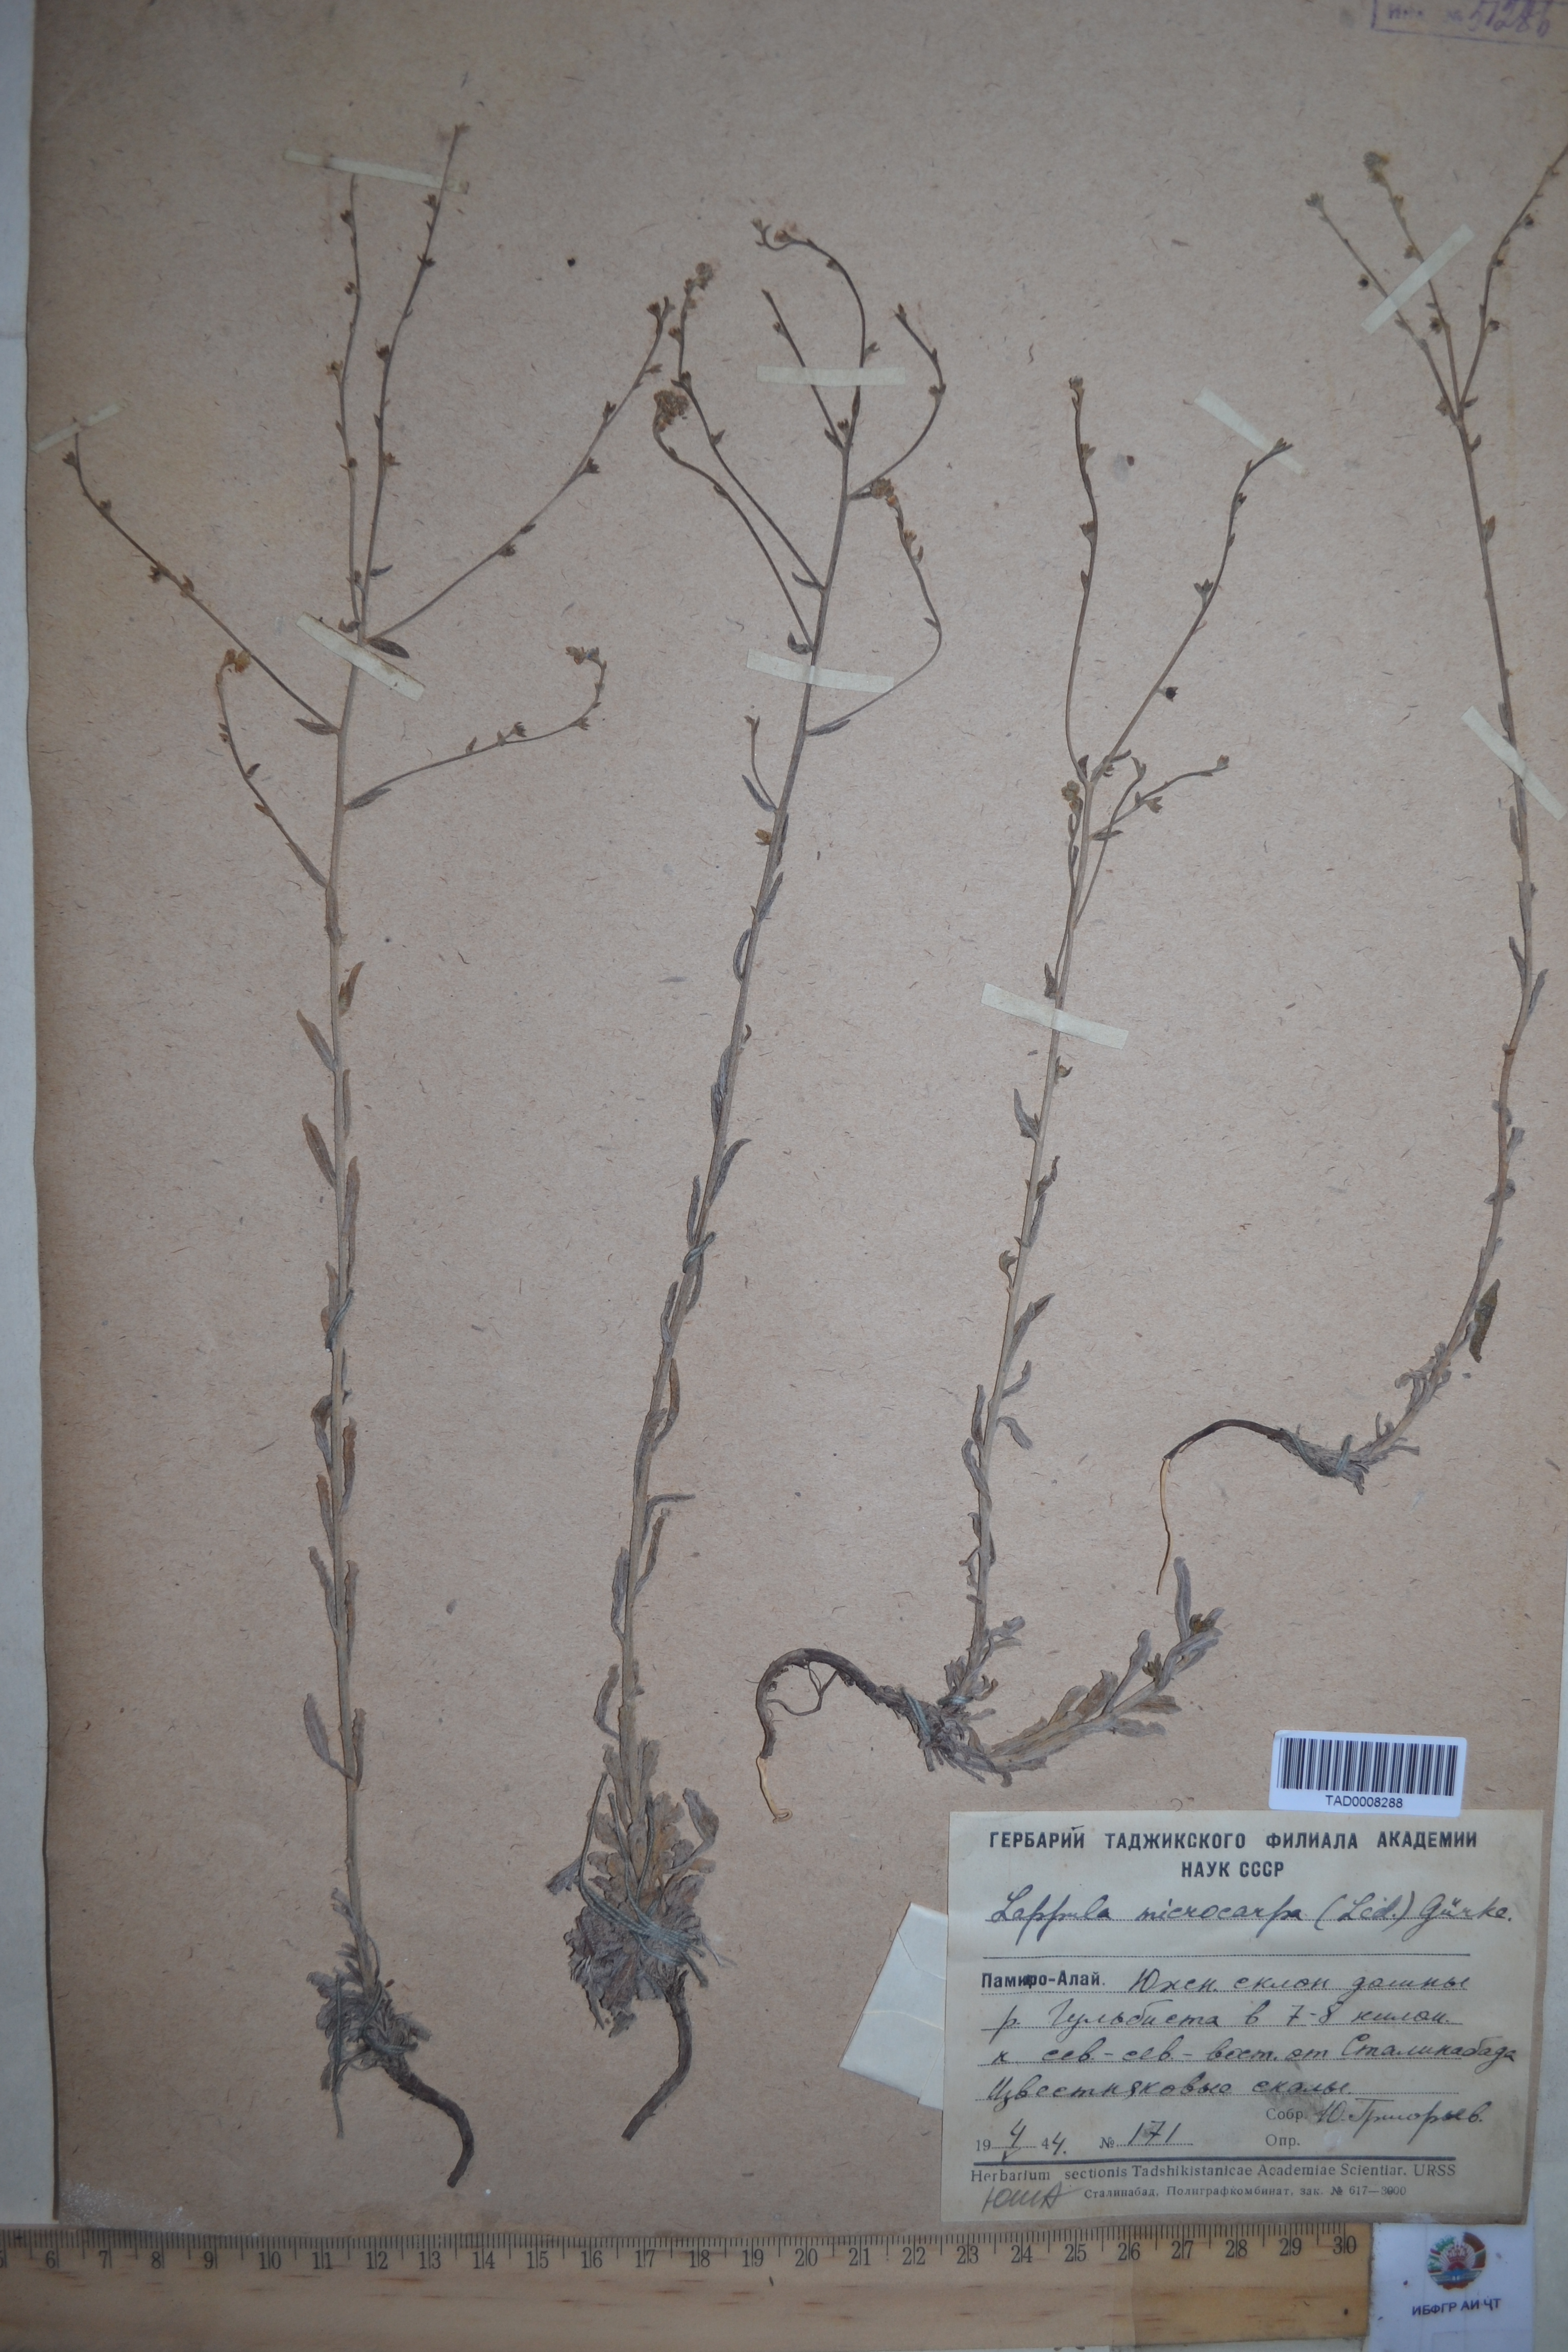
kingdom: Plantae
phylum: Tracheophyta
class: Magnoliopsida
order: Boraginales
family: Boraginaceae
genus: Lappula
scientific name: Lappula microcarpa
